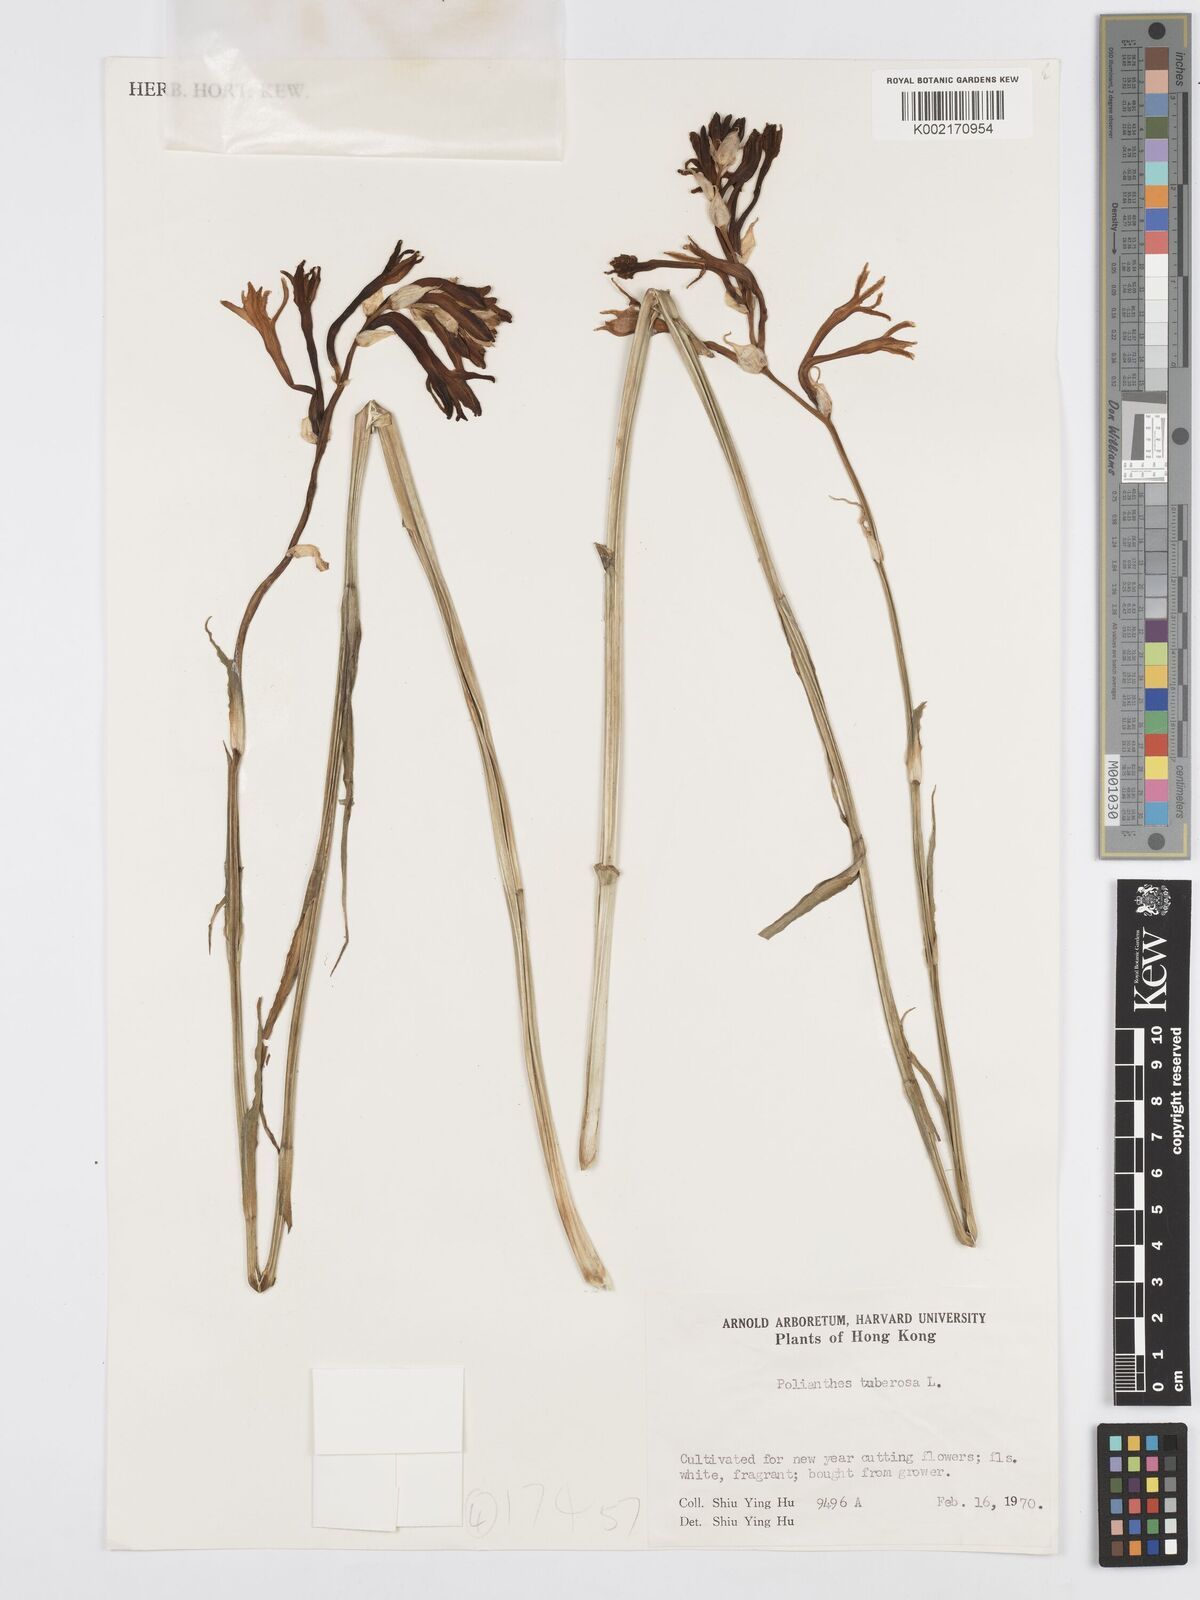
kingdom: Plantae
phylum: Tracheophyta
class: Liliopsida
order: Asparagales
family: Asparagaceae
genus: Agave
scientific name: Agave amica
